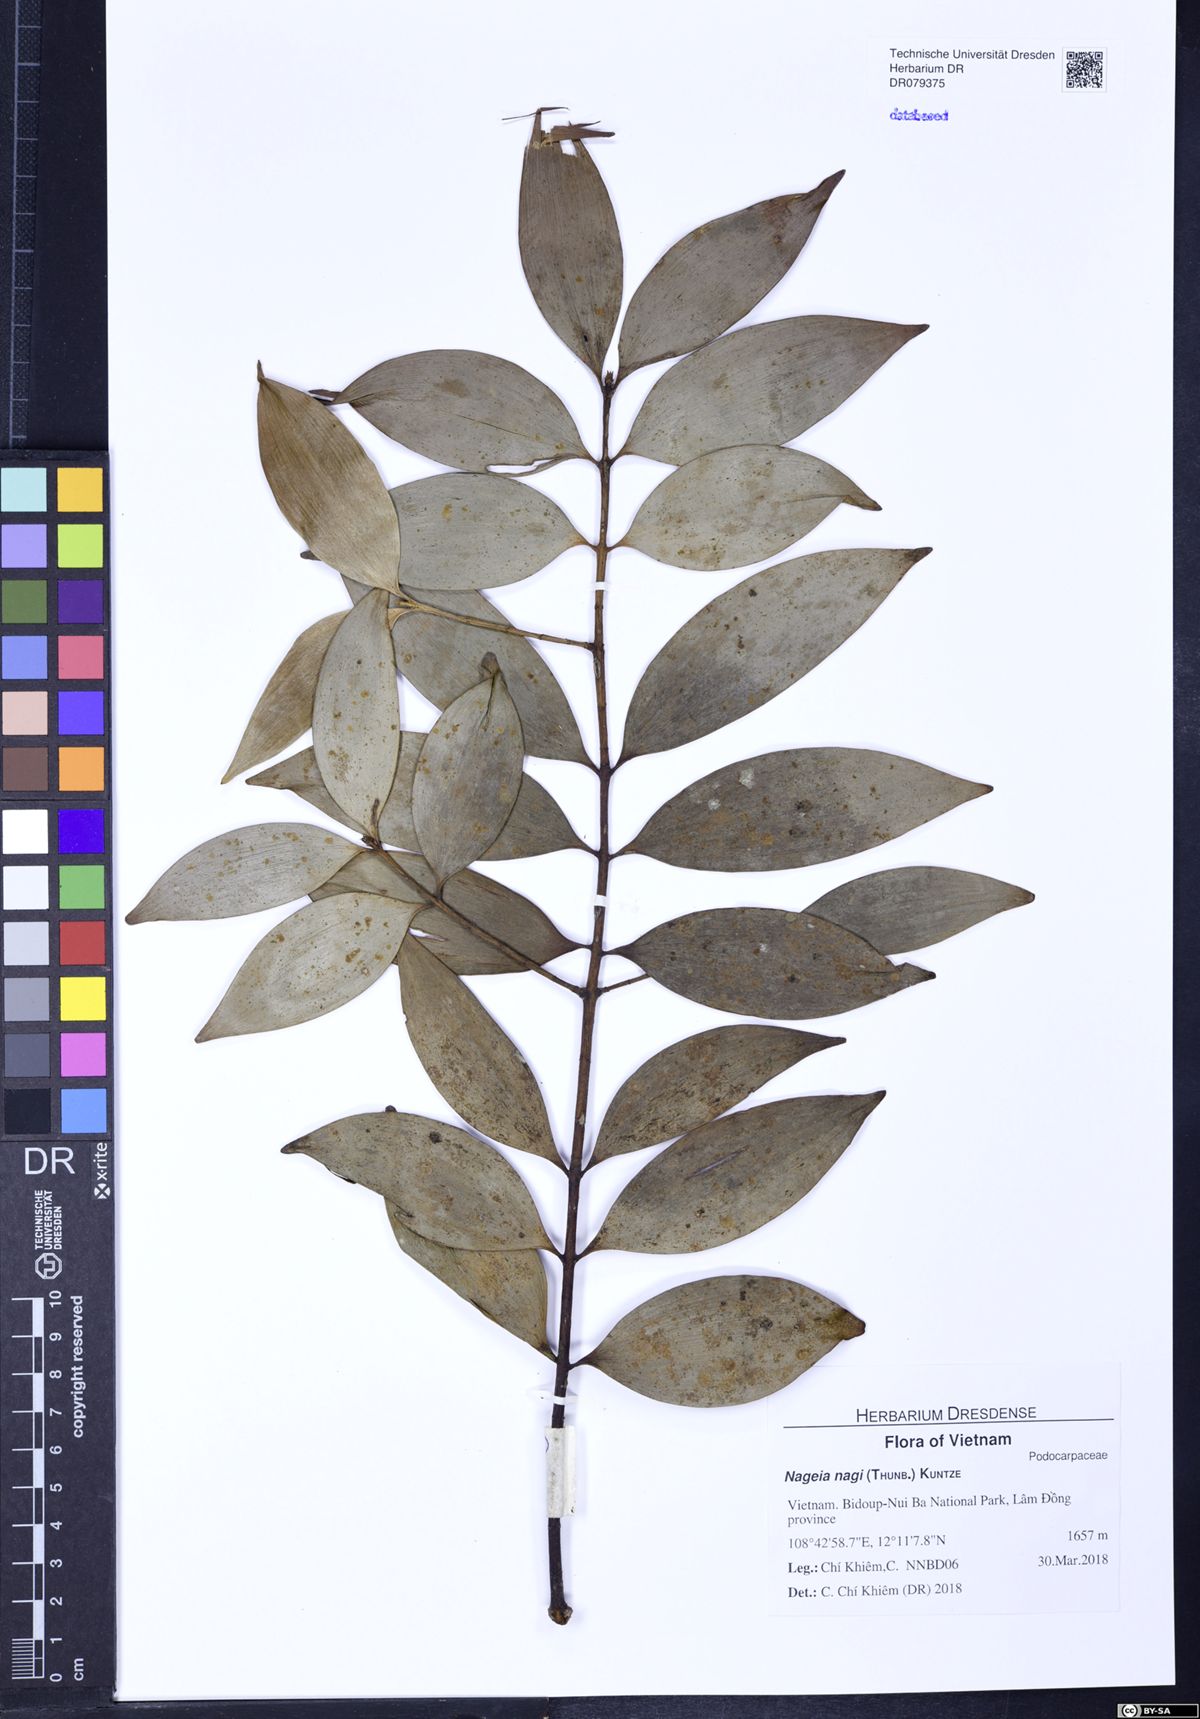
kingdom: Plantae
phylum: Tracheophyta
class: Pinopsida
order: Pinales
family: Podocarpaceae
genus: Nageia
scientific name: Nageia nagi
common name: Kaphal
